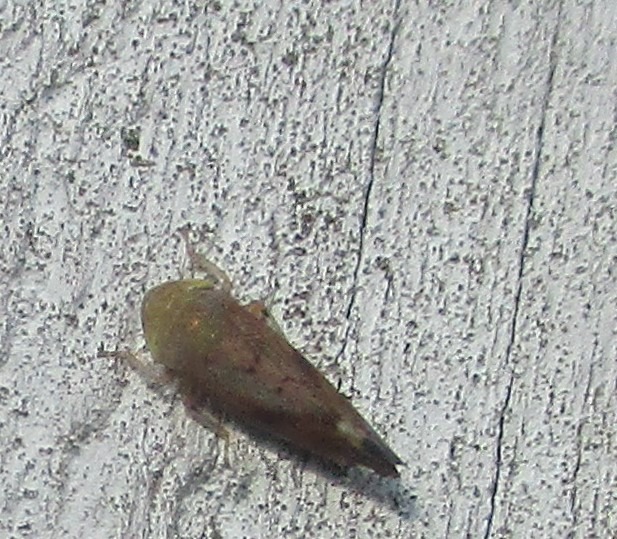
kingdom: Animalia
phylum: Arthropoda
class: Insecta
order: Hemiptera
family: Cicadellidae
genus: Fieberiella
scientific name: Fieberiella septentrionalis
